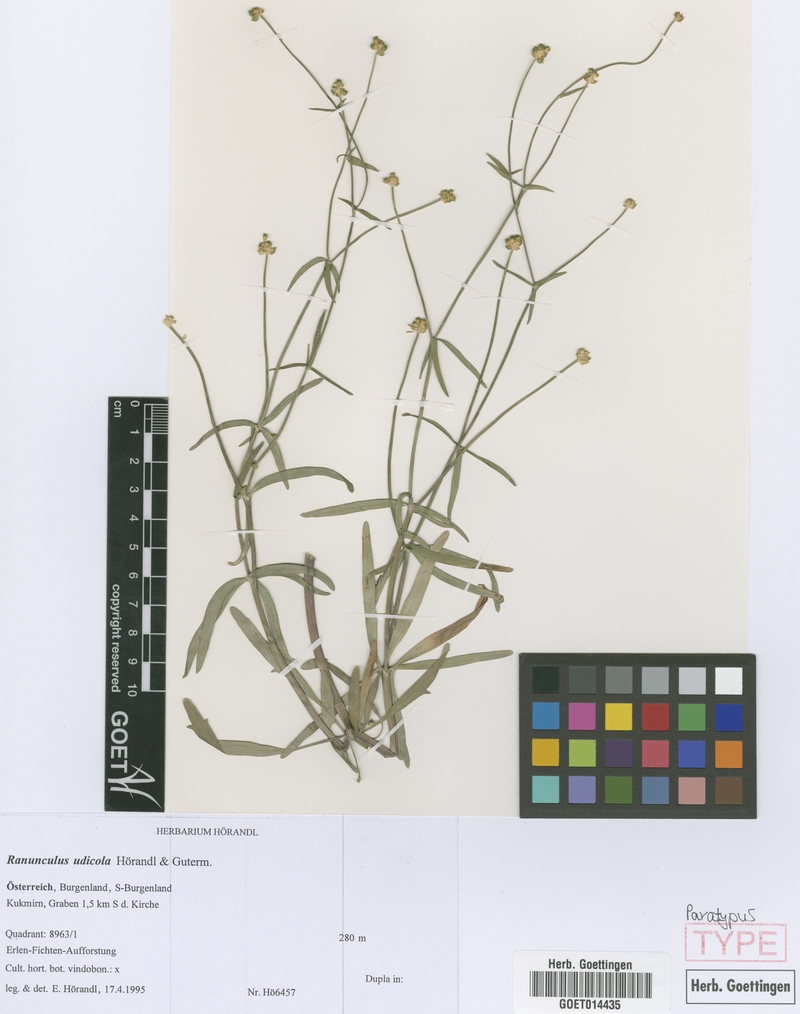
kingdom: Plantae
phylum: Tracheophyta
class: Magnoliopsida
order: Ranunculales
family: Ranunculaceae
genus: Ranunculus
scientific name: Ranunculus udicola
